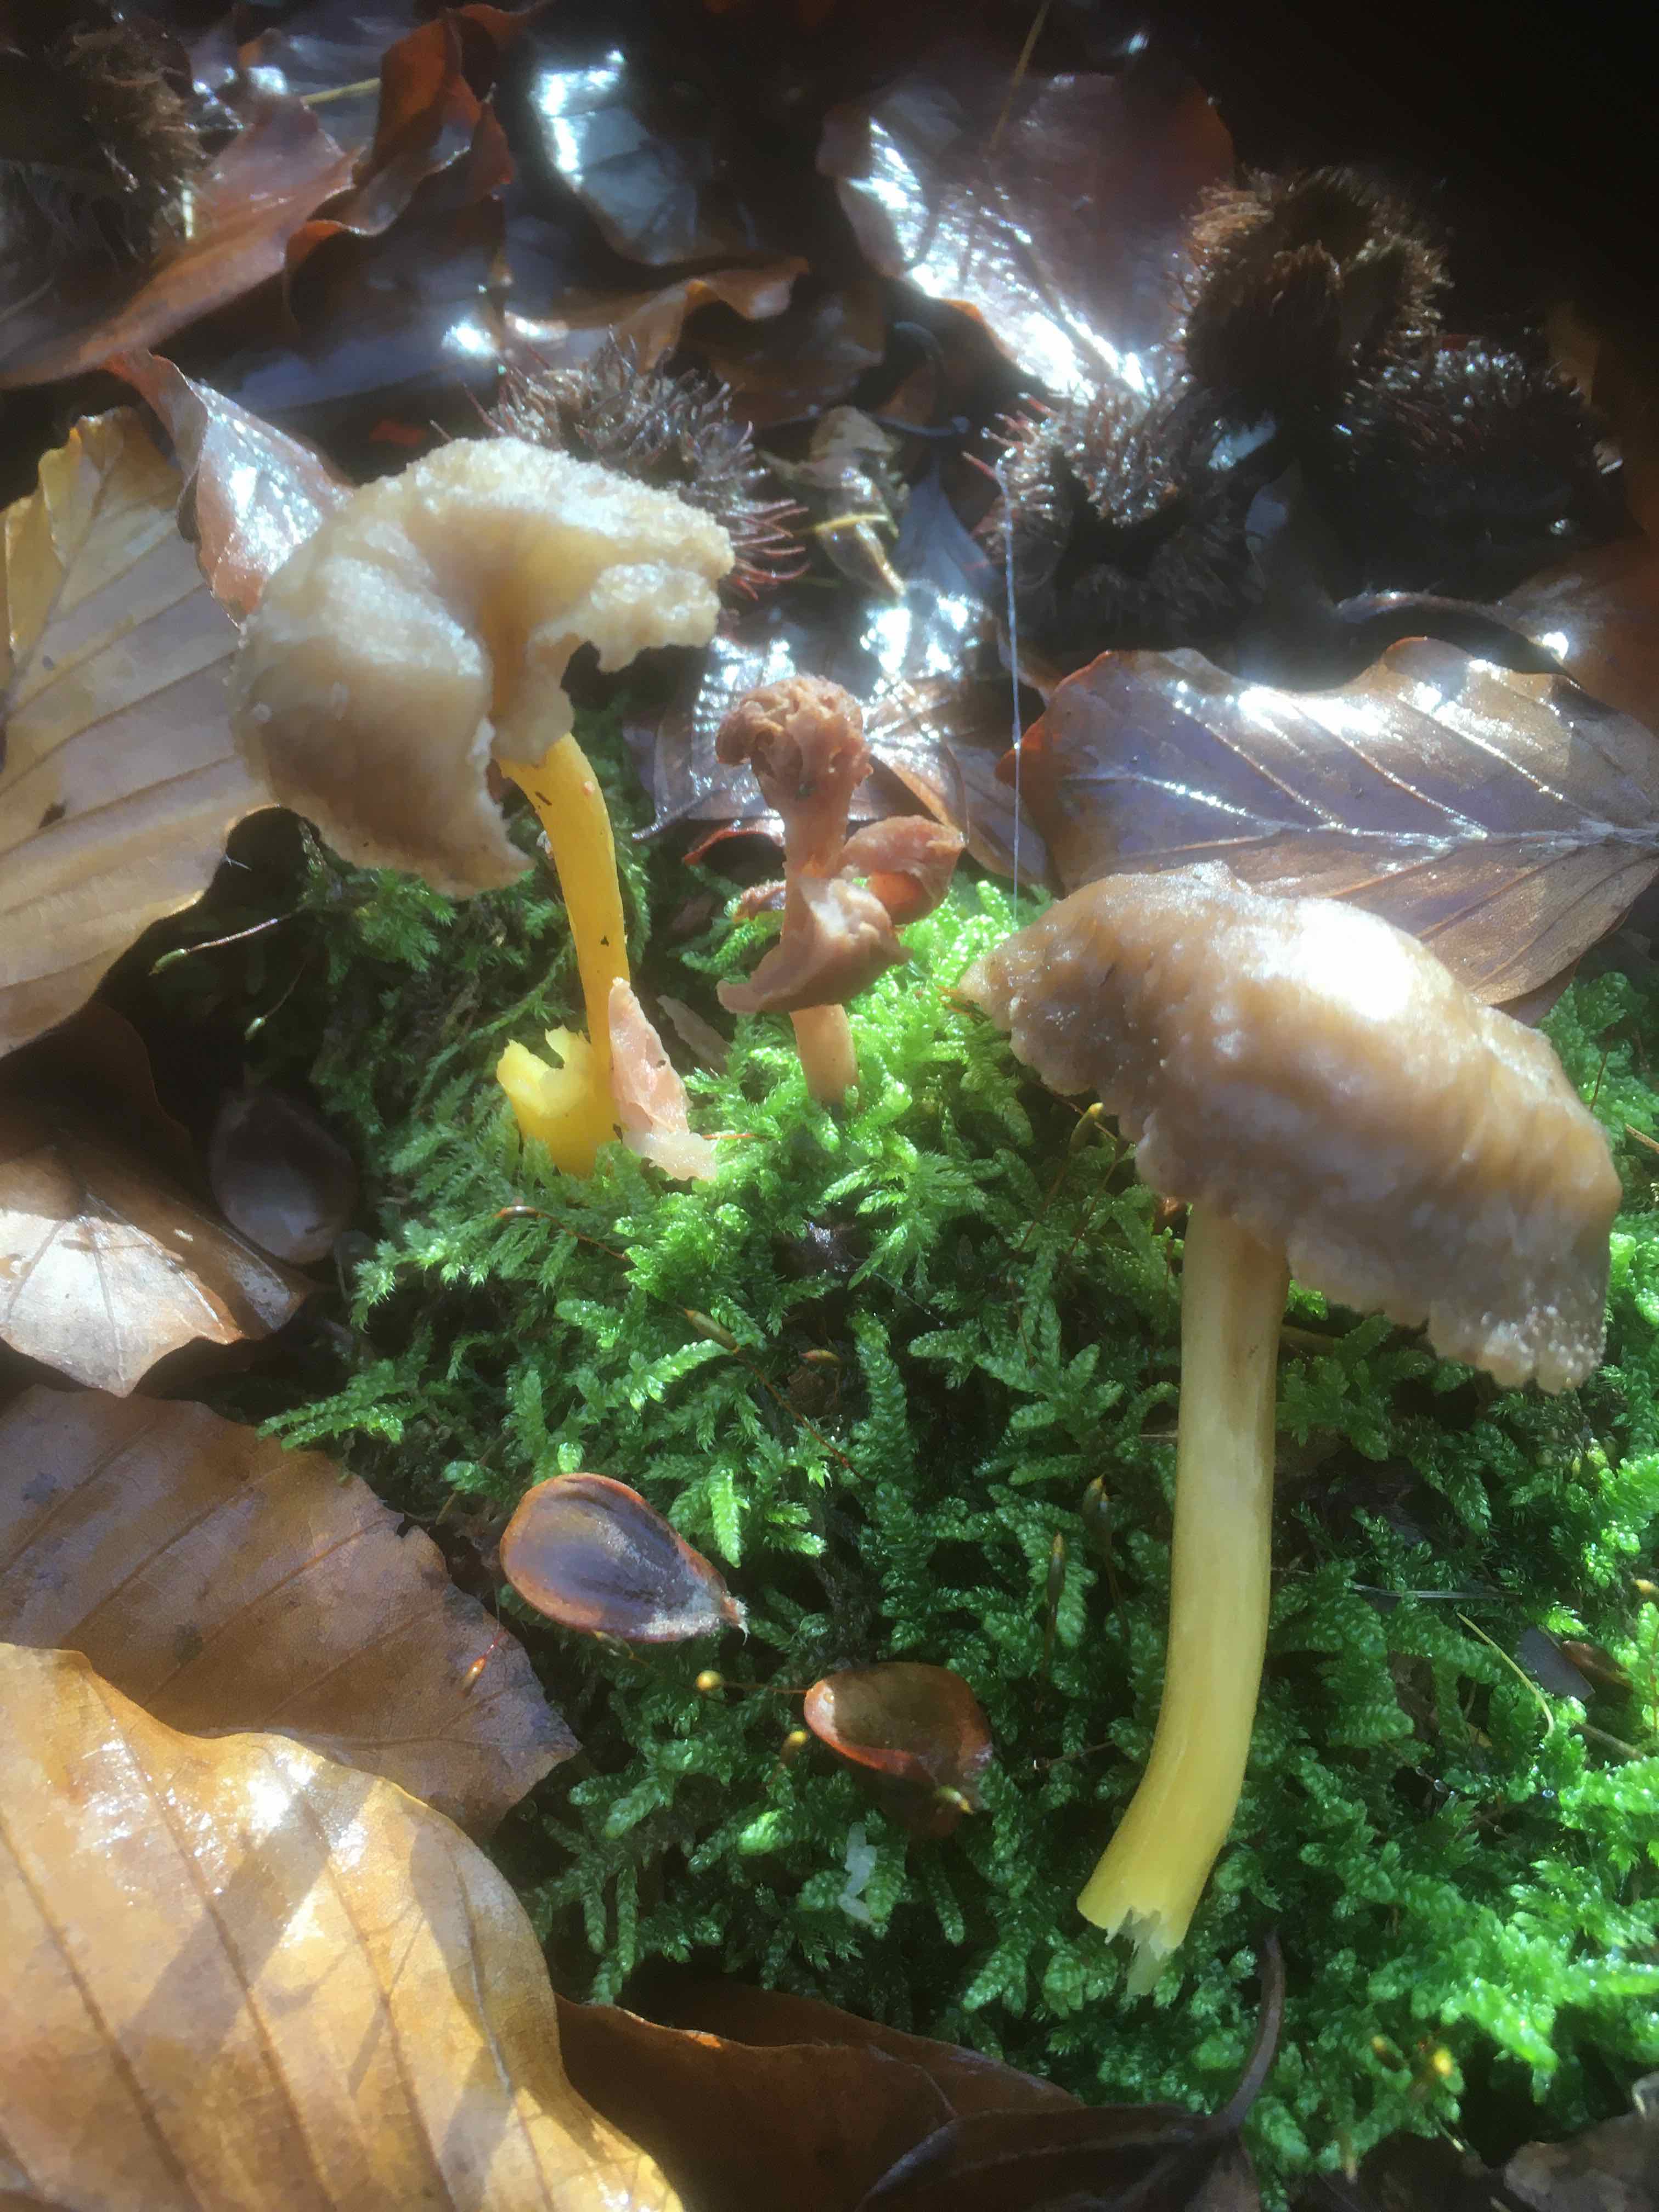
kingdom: Fungi
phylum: Basidiomycota
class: Agaricomycetes
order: Cantharellales
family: Hydnaceae
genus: Craterellus
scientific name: Craterellus tubaeformis
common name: tragt-kantarel
